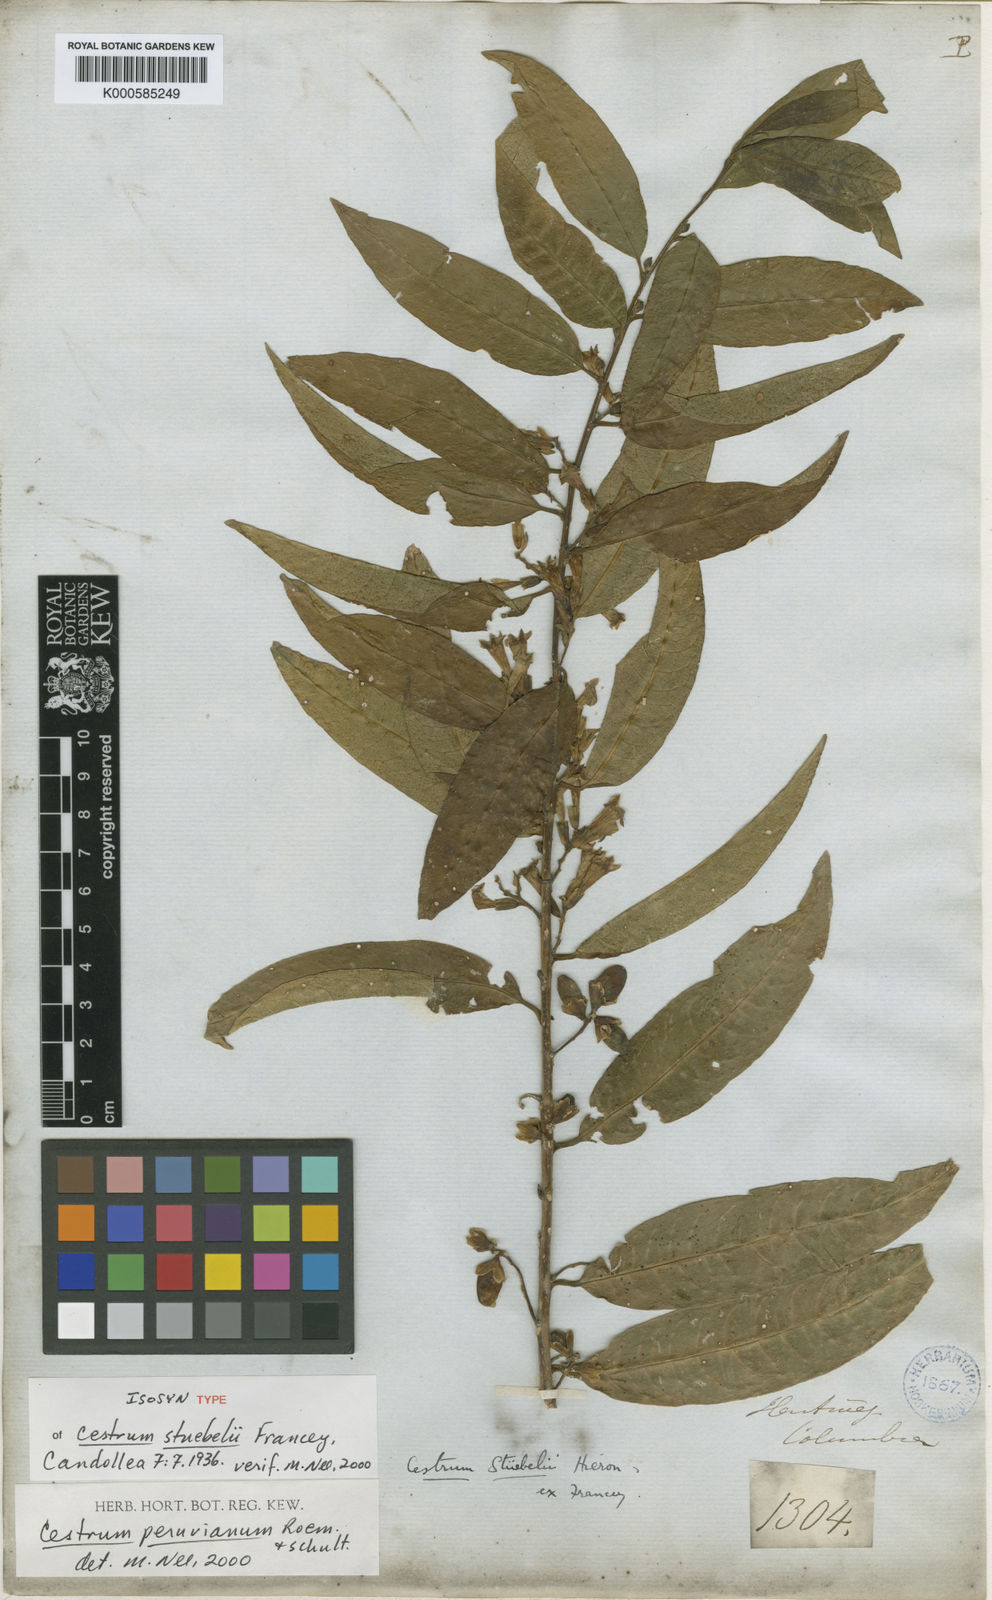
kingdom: Plantae
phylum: Tracheophyta
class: Magnoliopsida
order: Solanales
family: Solanaceae
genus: Cestrum
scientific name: Cestrum stuebelii
